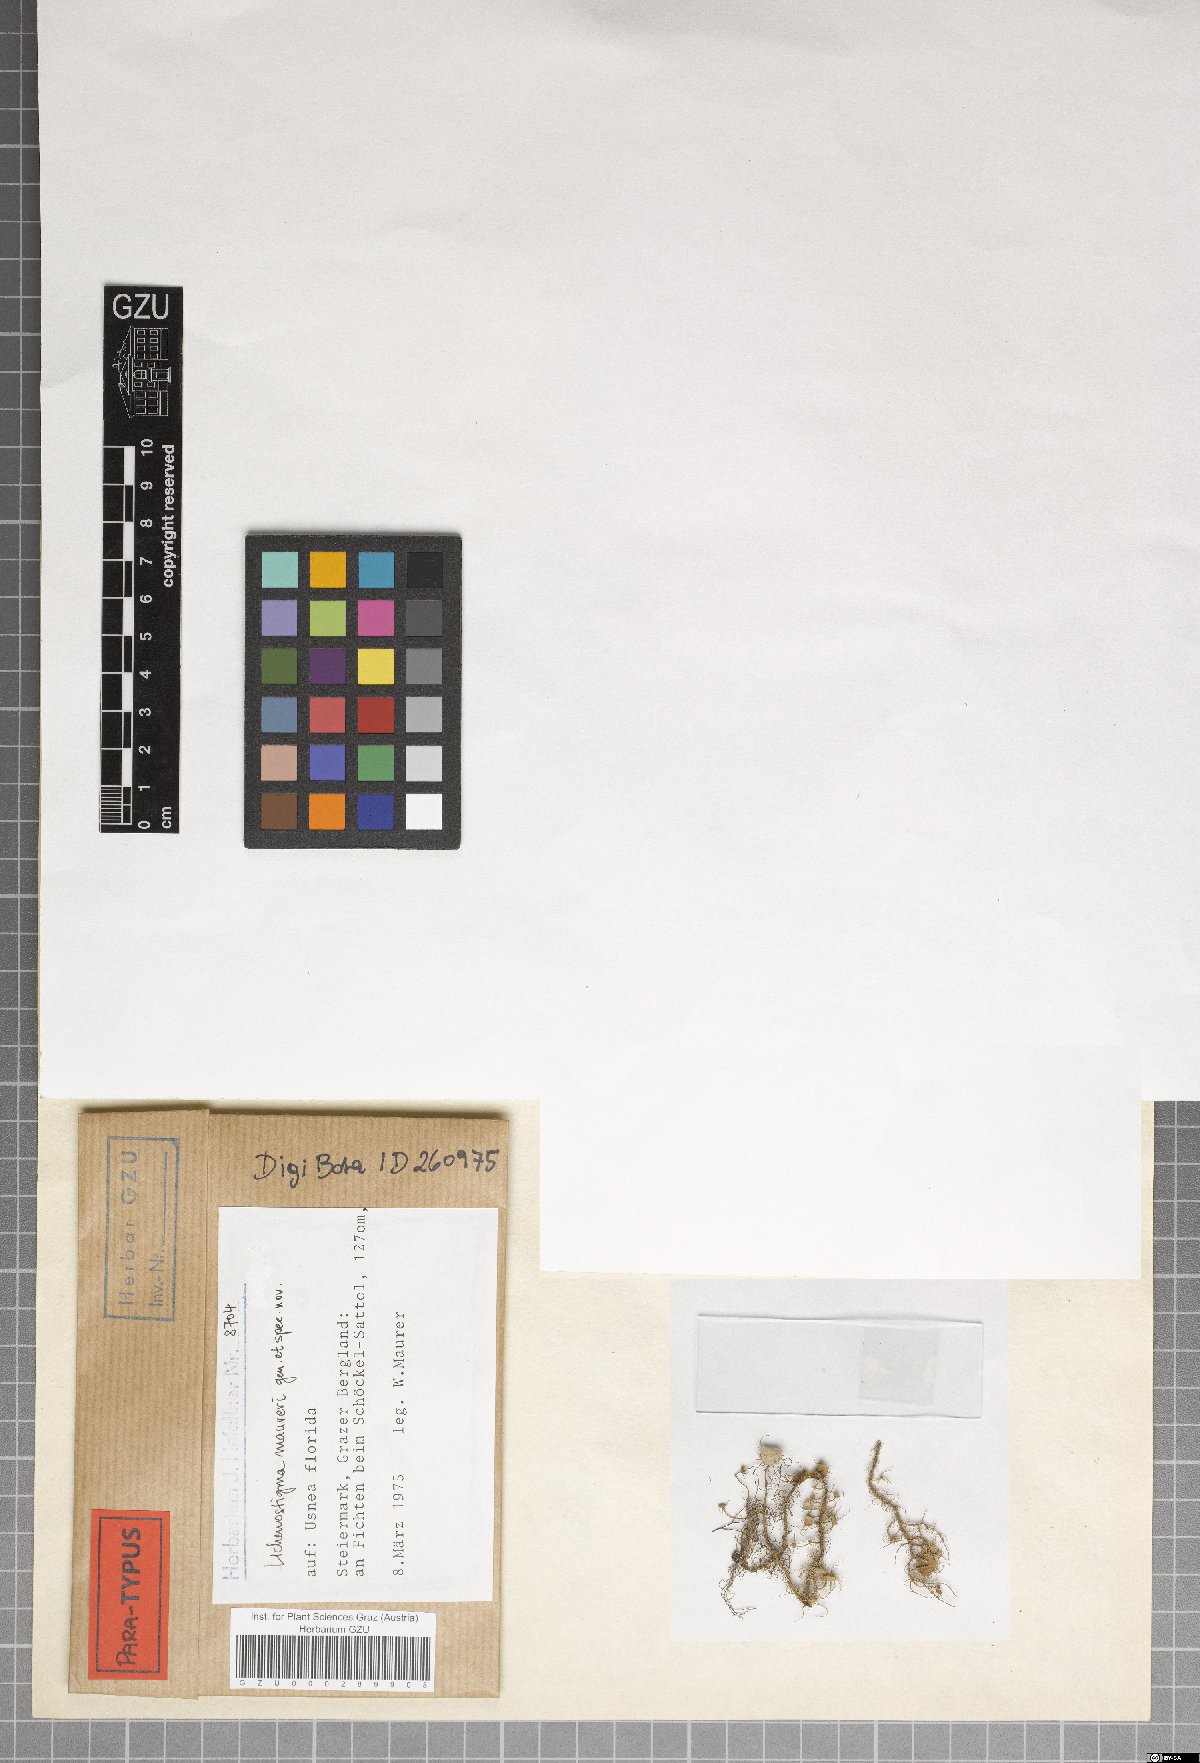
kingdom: Fungi
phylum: Ascomycota
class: Arthoniomycetes
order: Lichenostigmatales
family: Phaeococcomycetaceae
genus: Lichenostigma
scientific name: Lichenostigma maureri
